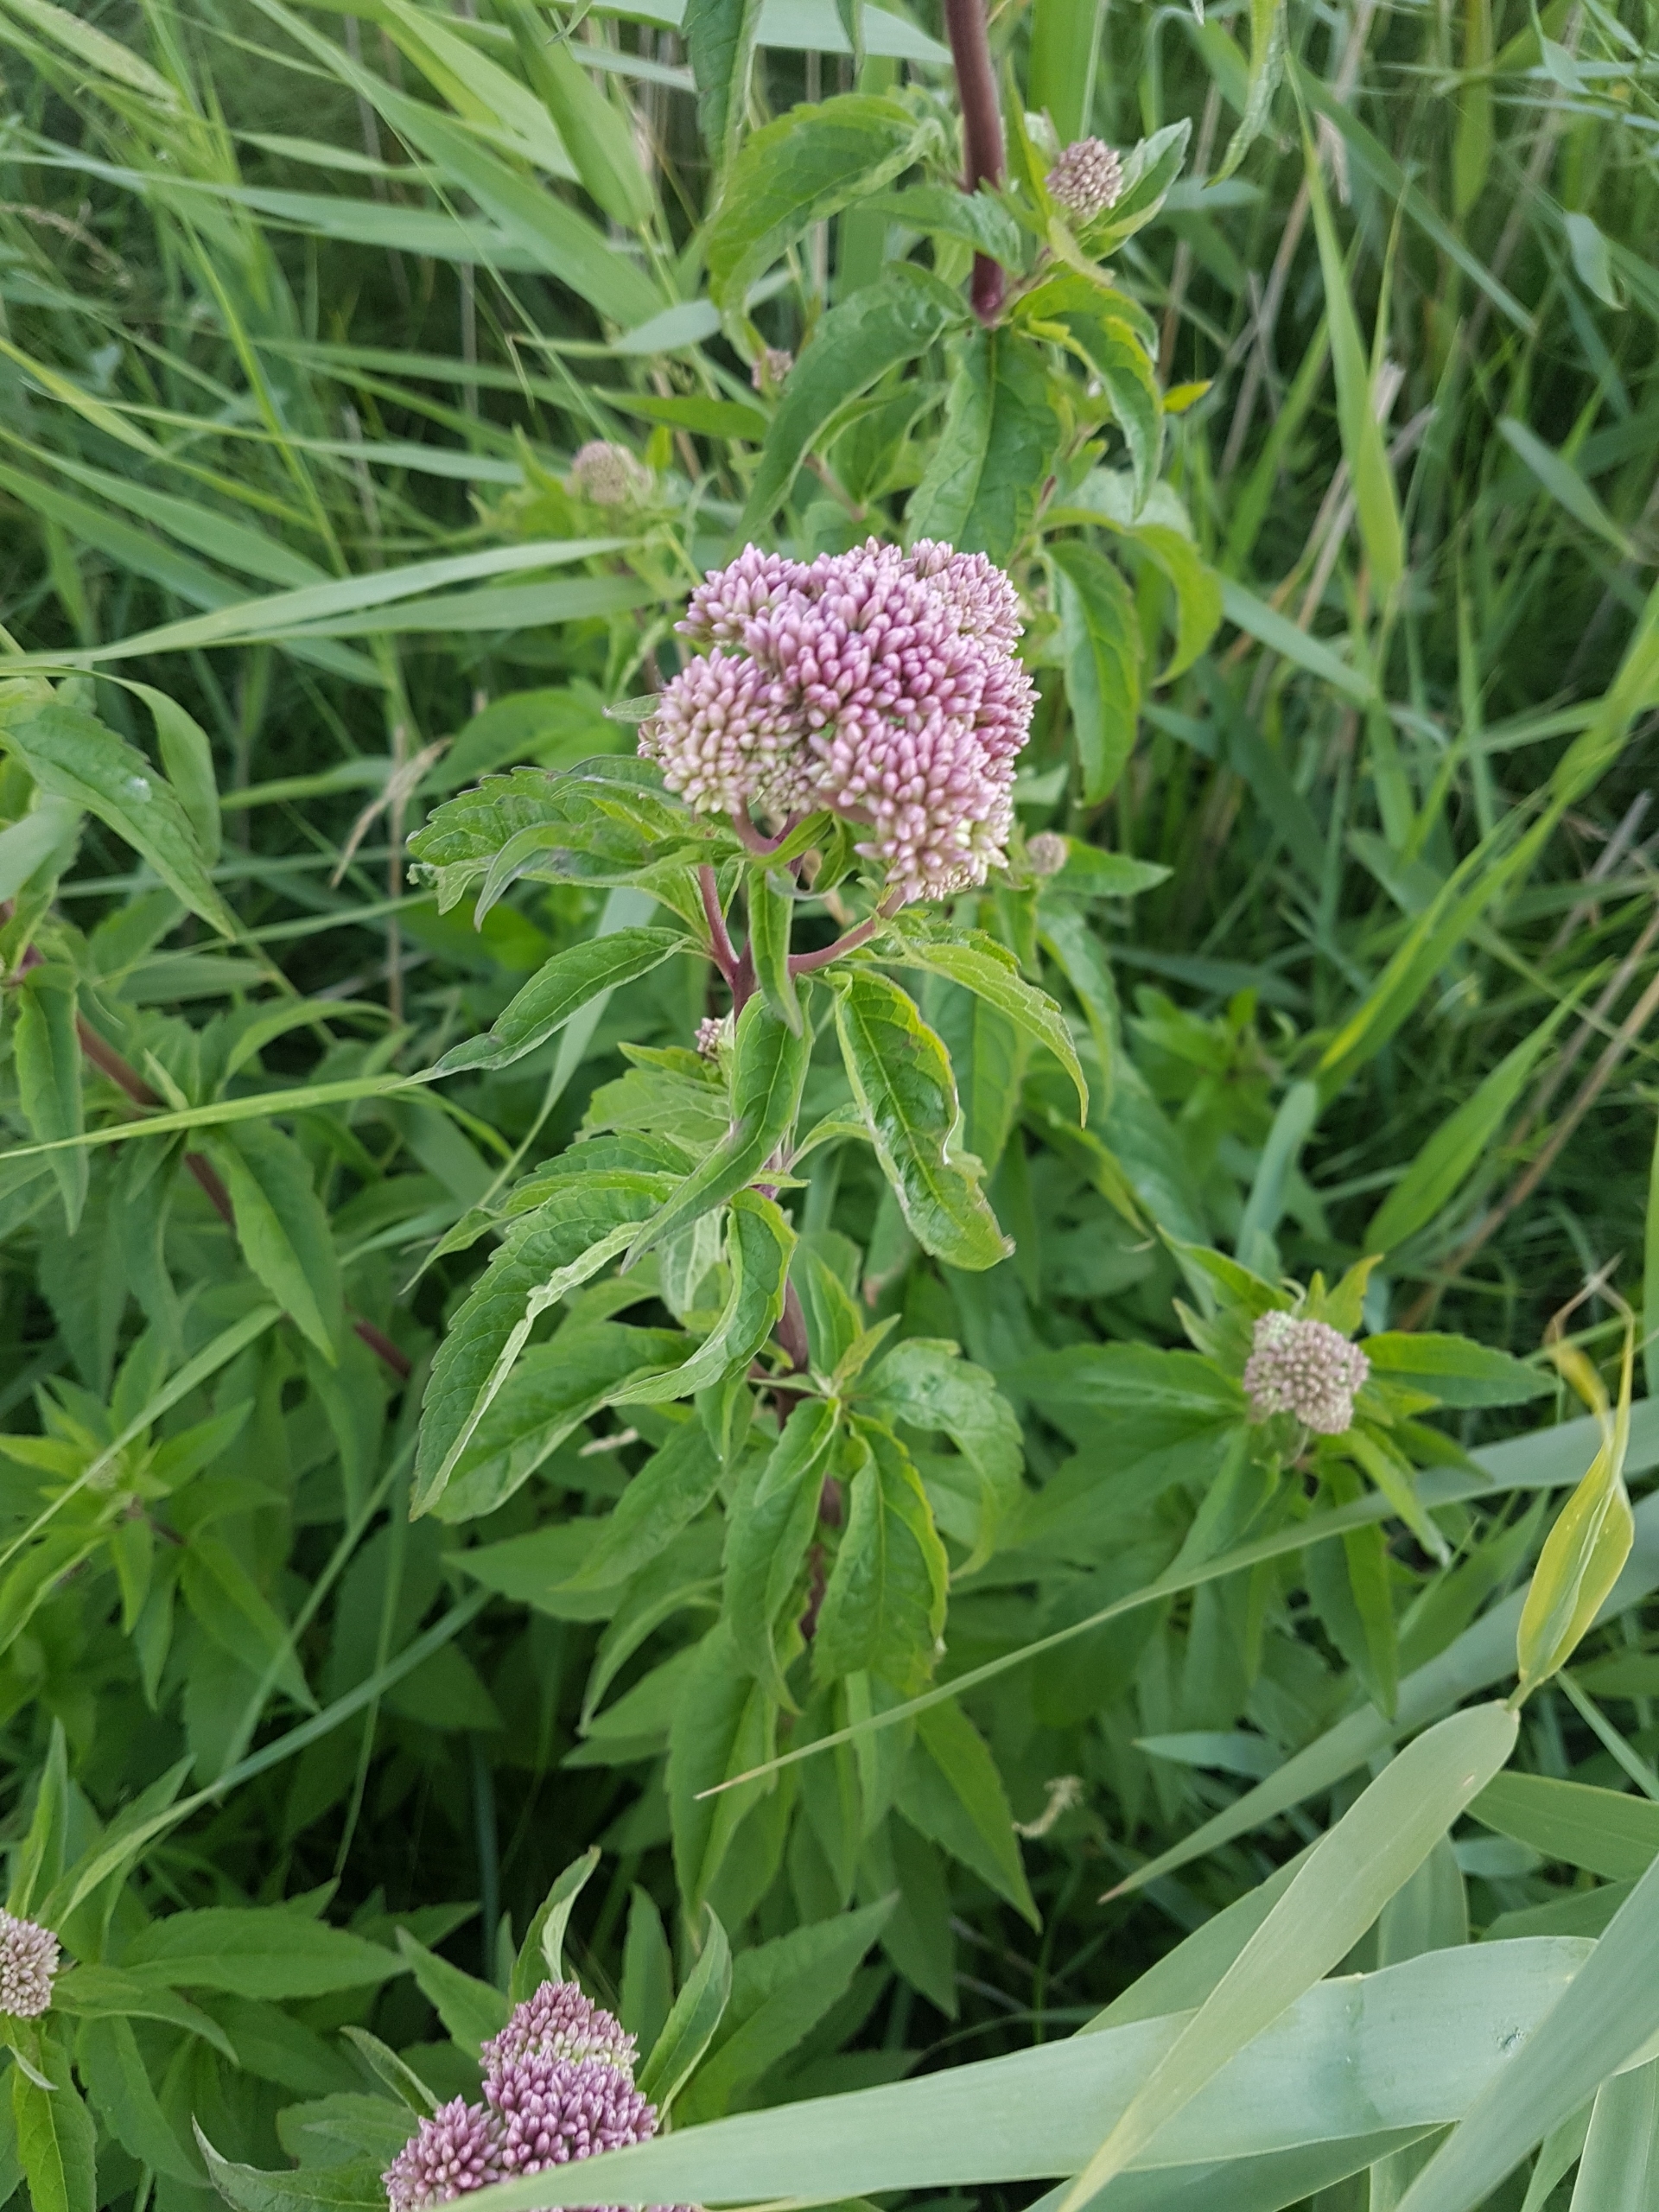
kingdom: Plantae
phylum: Tracheophyta
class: Magnoliopsida
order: Asterales
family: Asteraceae
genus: Eupatorium
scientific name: Eupatorium cannabinum
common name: Hjortetrøst
